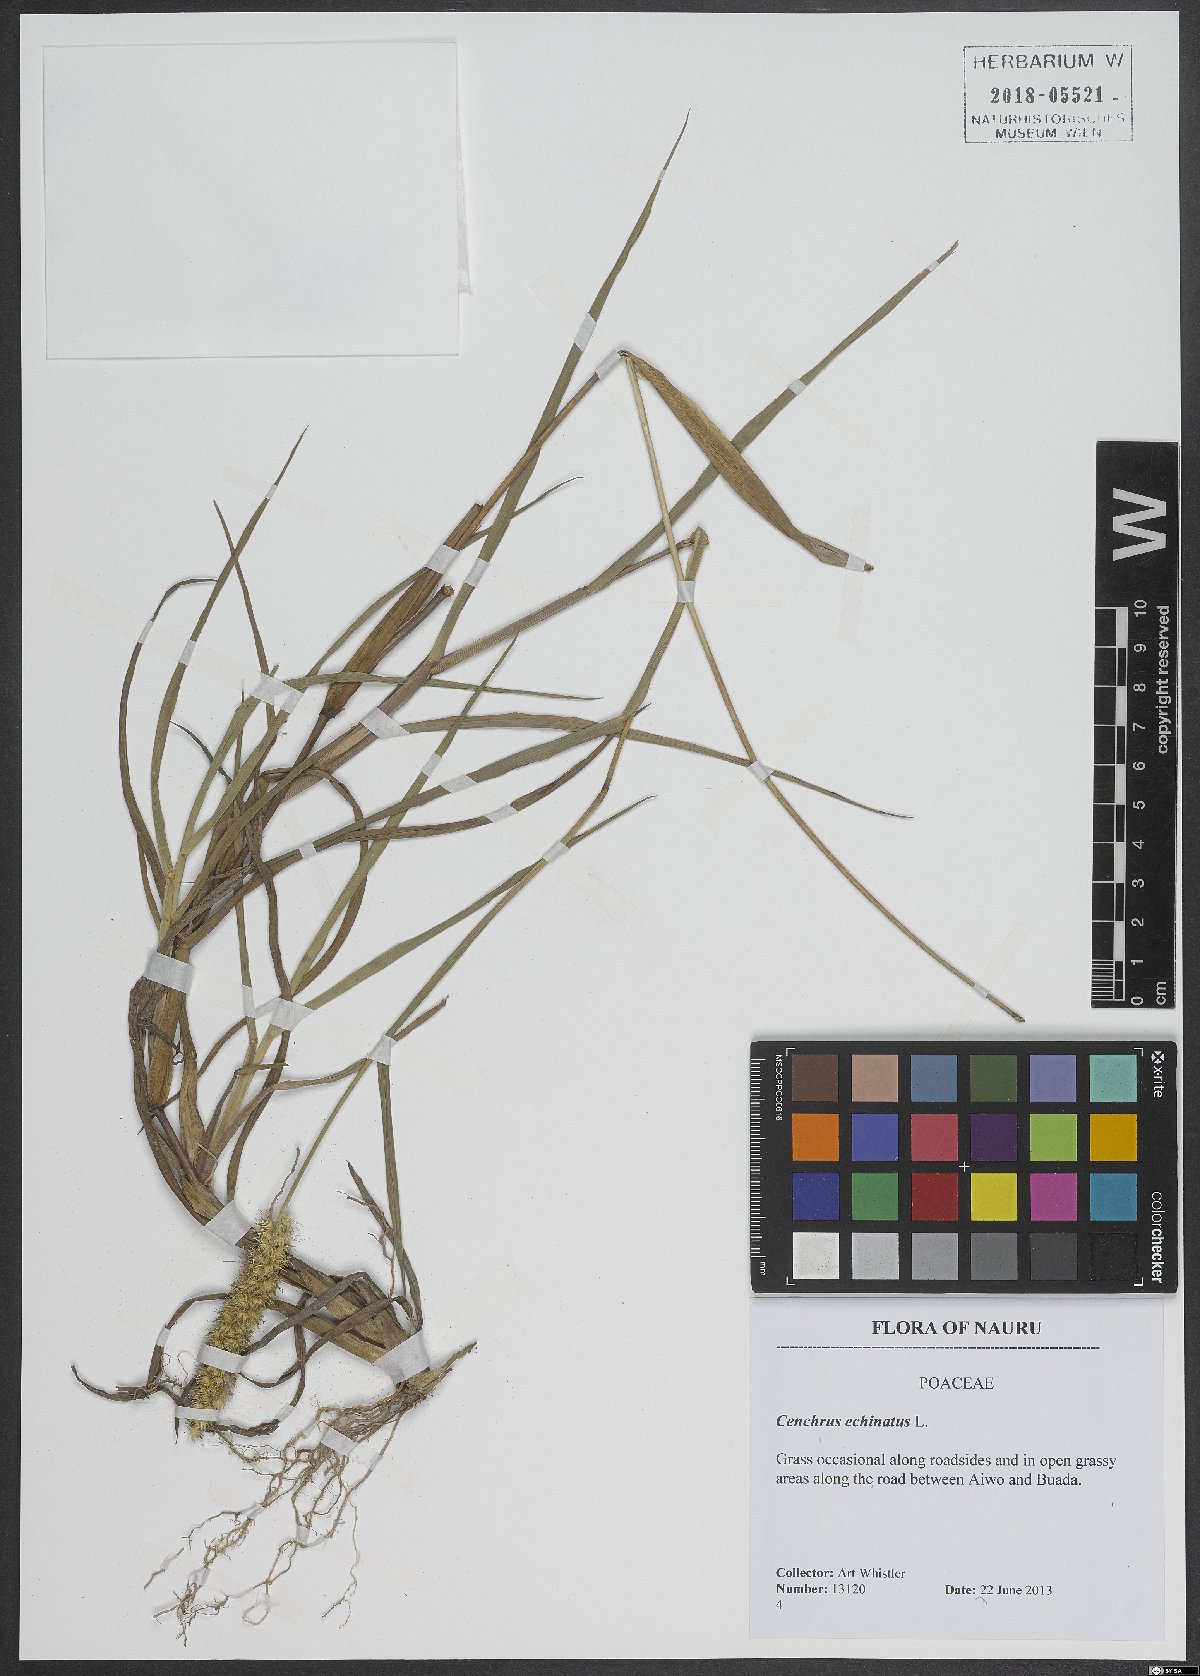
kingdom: Plantae
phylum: Tracheophyta
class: Liliopsida
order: Poales
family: Poaceae
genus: Cenchrus
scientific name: Cenchrus echinatus
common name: Southern sandbur
